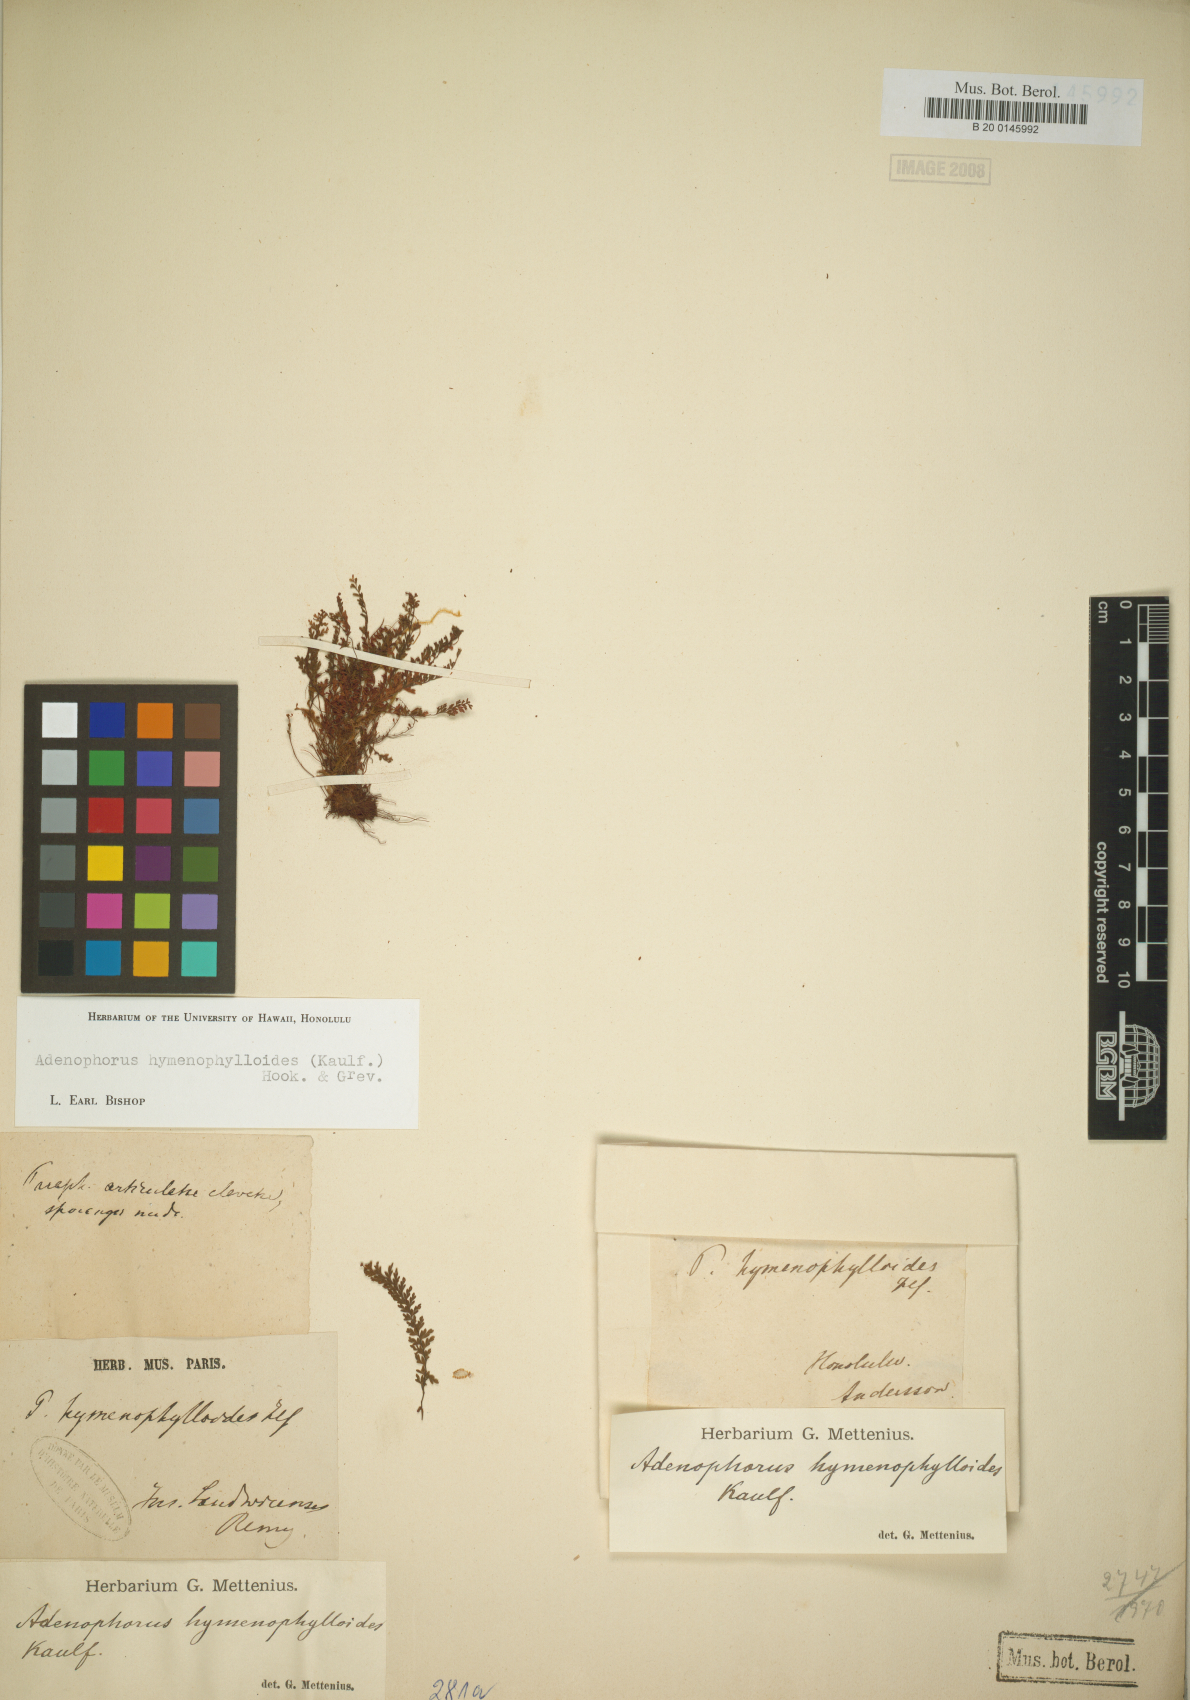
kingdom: Plantae
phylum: Tracheophyta
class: Polypodiopsida
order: Polypodiales
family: Polypodiaceae
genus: Adenophorus
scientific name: Adenophorus hymenophylloides
